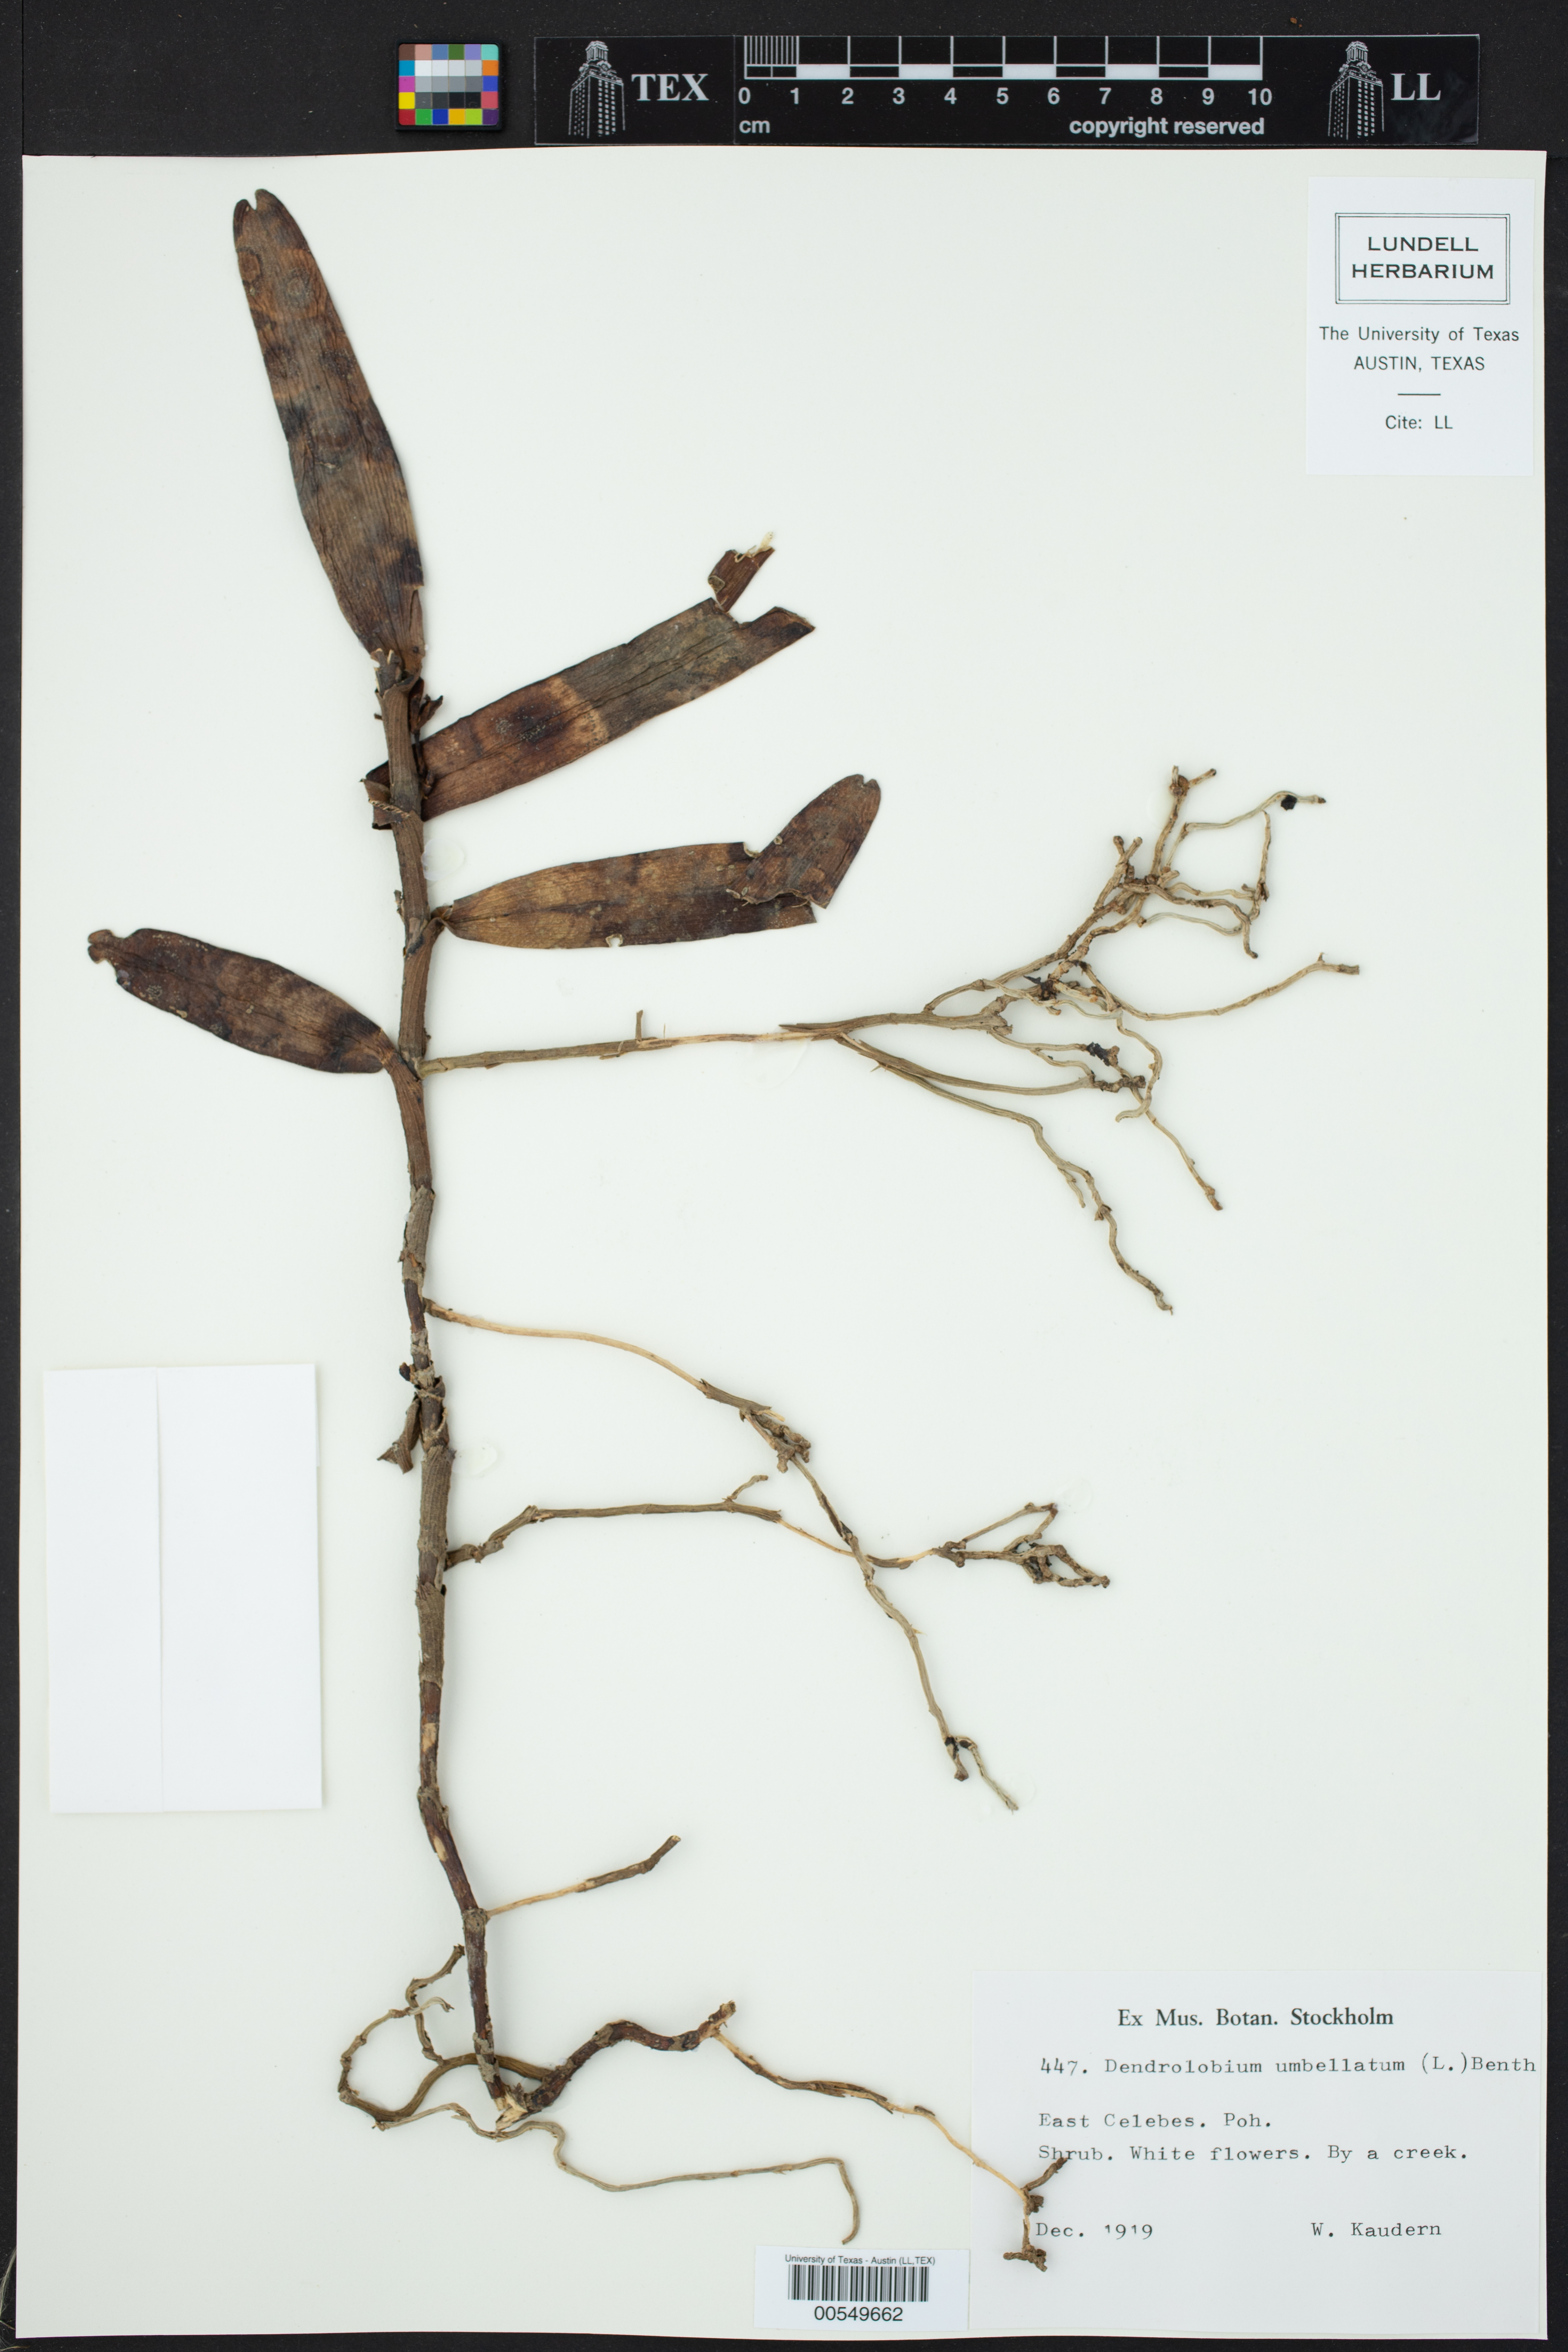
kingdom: Plantae
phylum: Tracheophyta
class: Magnoliopsida
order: Fabales
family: Fabaceae
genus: Dendrolobium
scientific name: Dendrolobium umbellatum
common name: Horsebush
